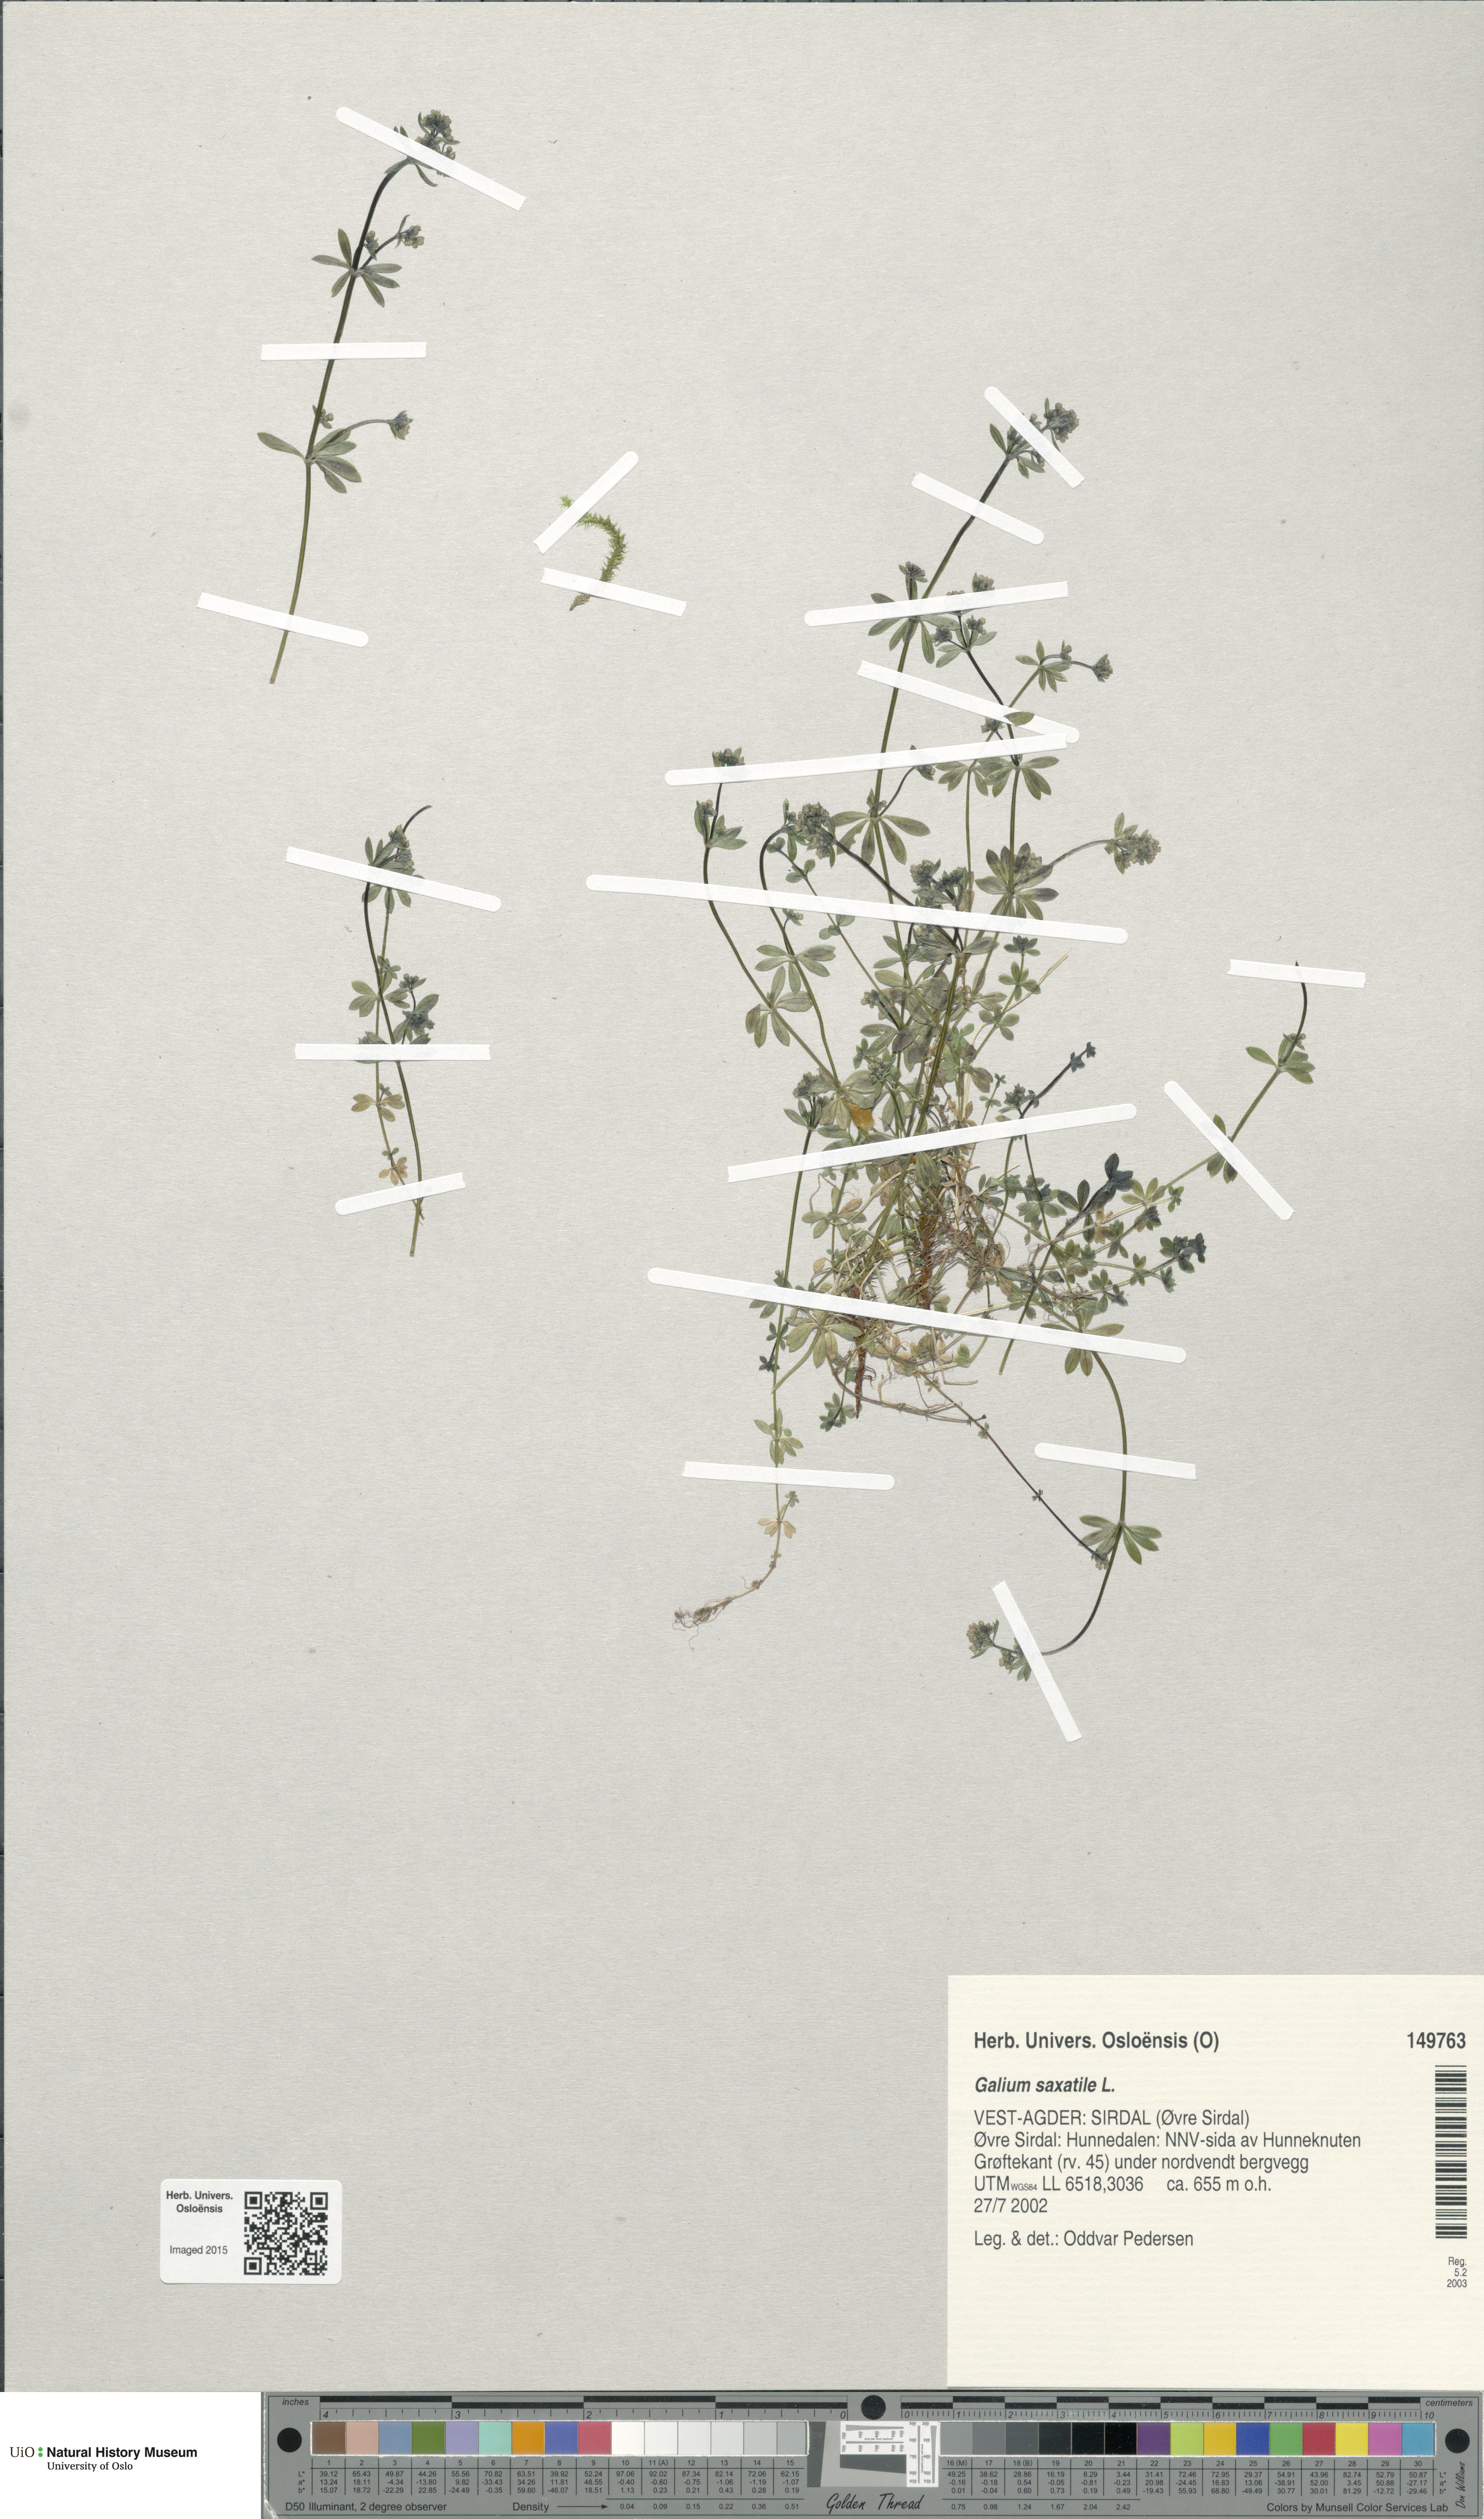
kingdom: Plantae
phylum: Tracheophyta
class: Magnoliopsida
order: Gentianales
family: Rubiaceae
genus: Galium
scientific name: Galium saxatile
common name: Heath bedstraw
